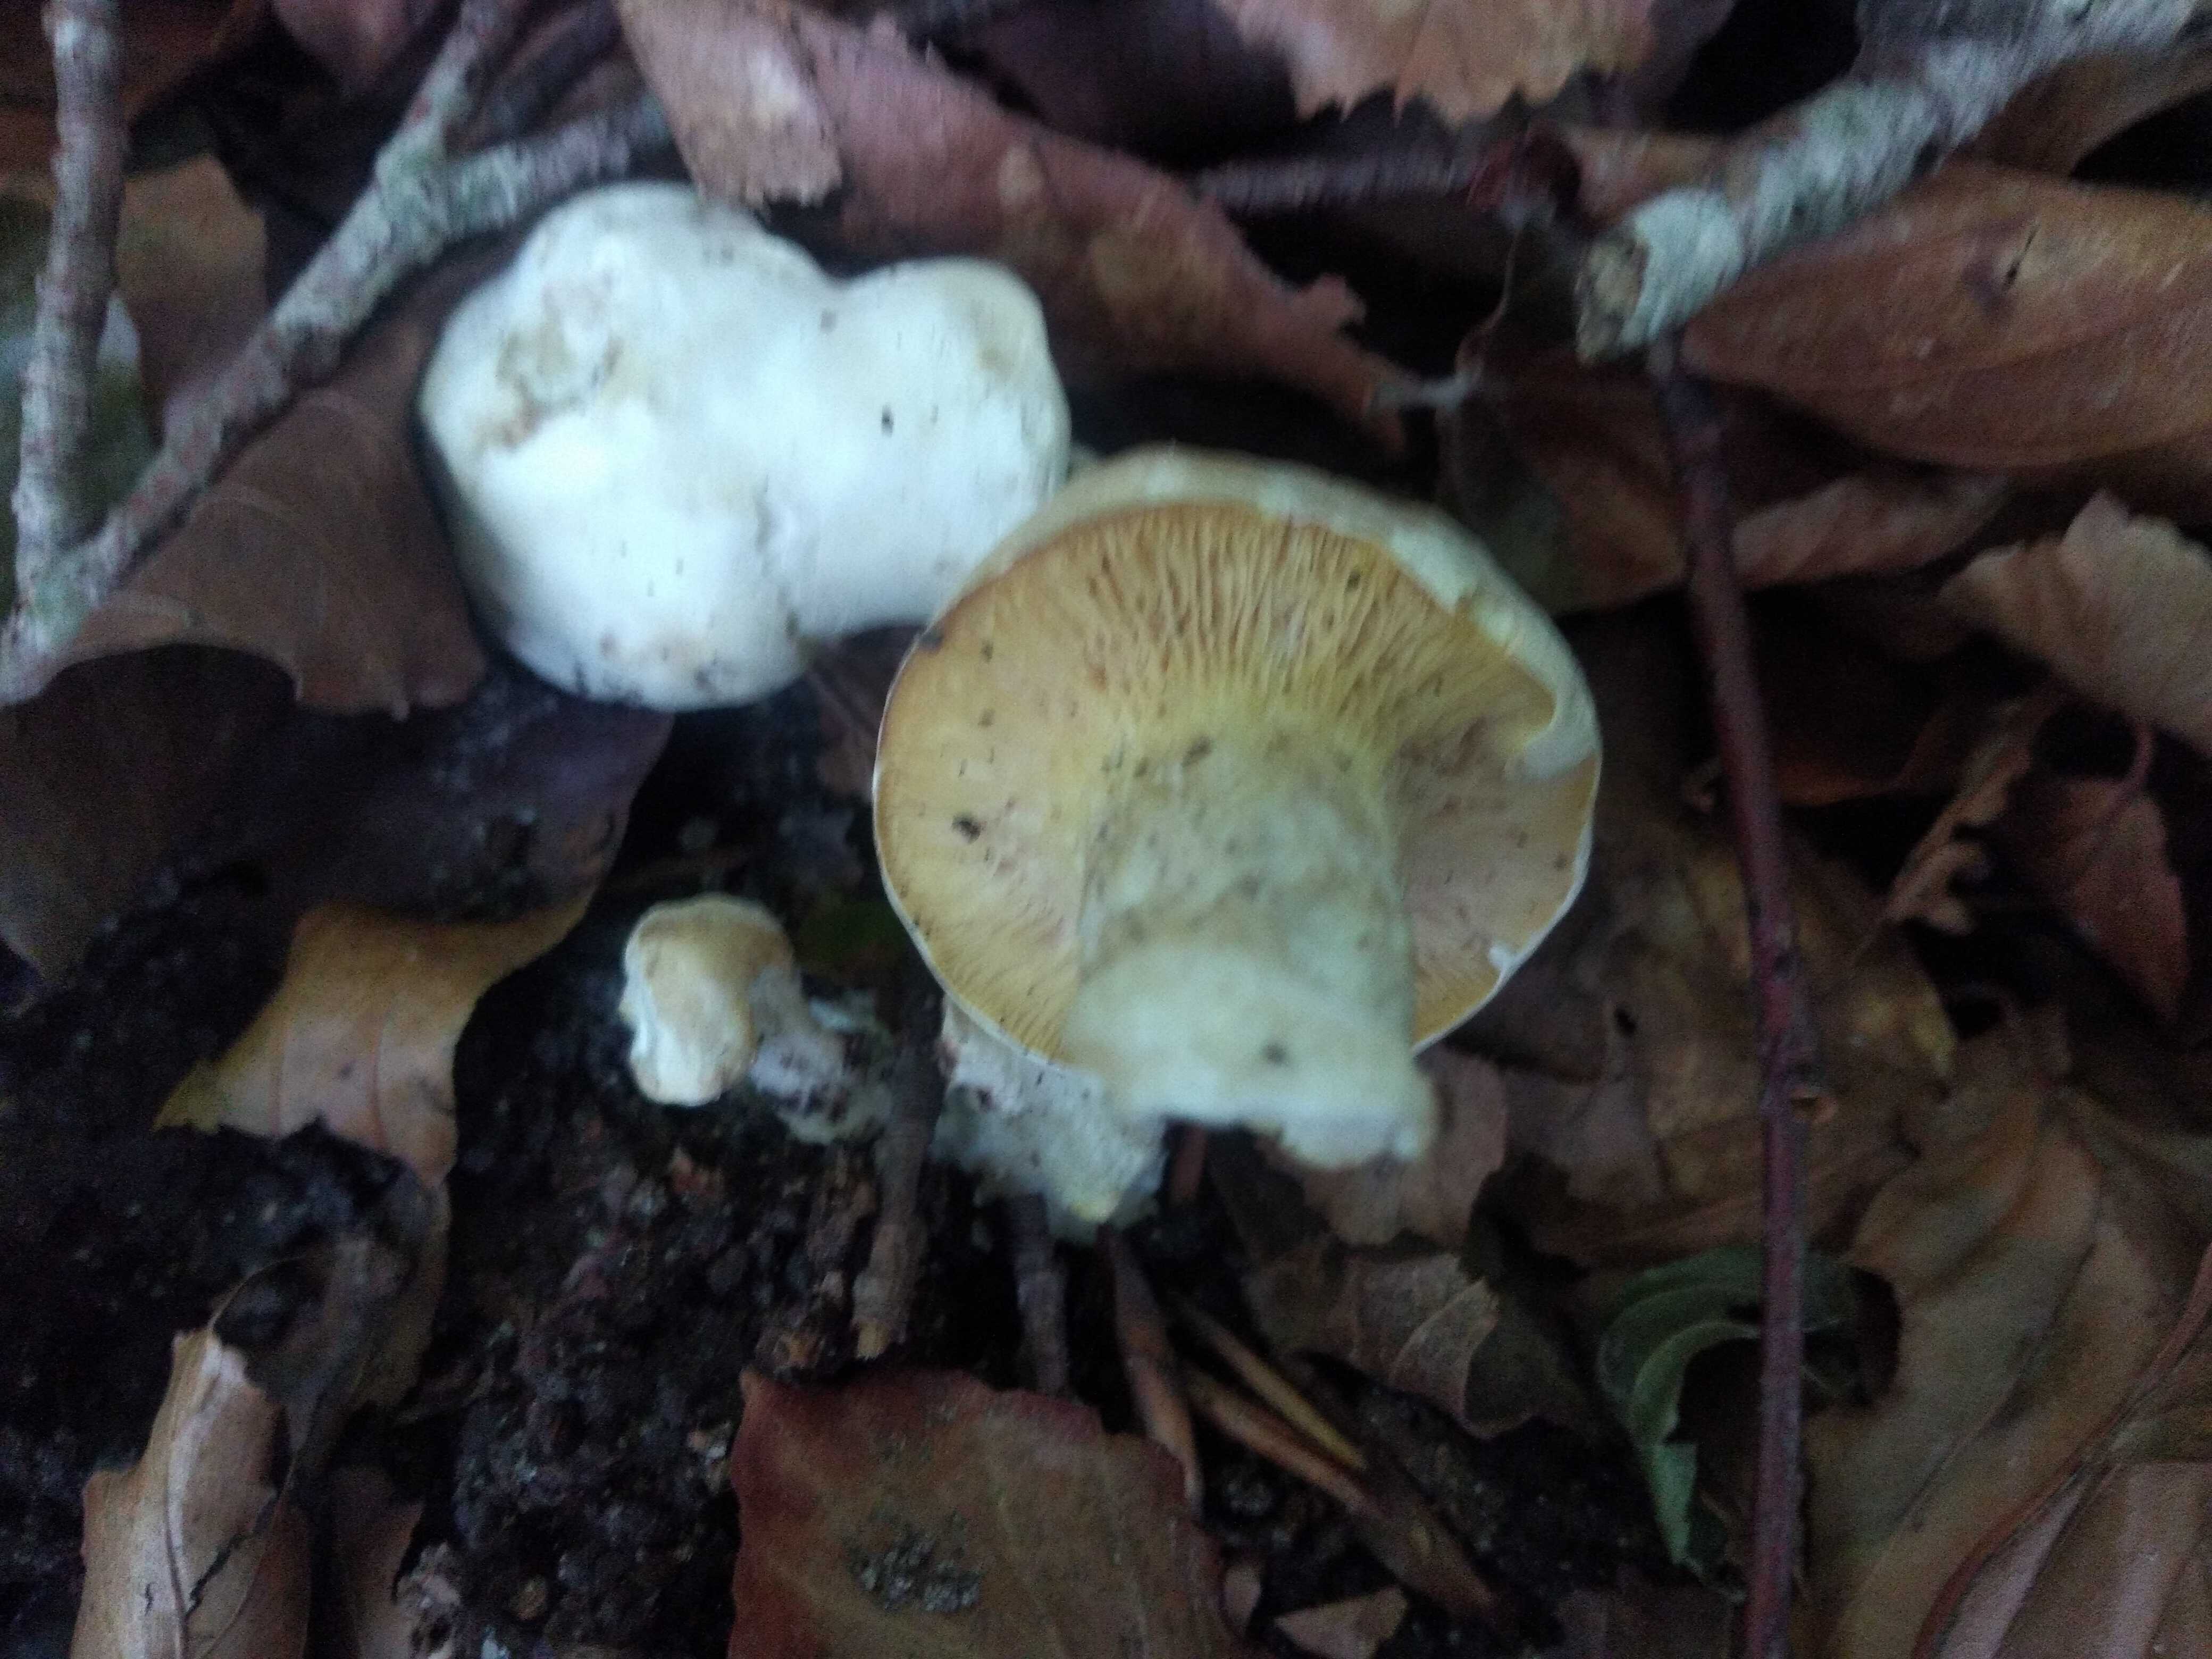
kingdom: Fungi
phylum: Basidiomycota
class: Agaricomycetes
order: Agaricales
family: Entolomataceae
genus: Clitopilus
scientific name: Clitopilus prunulus
